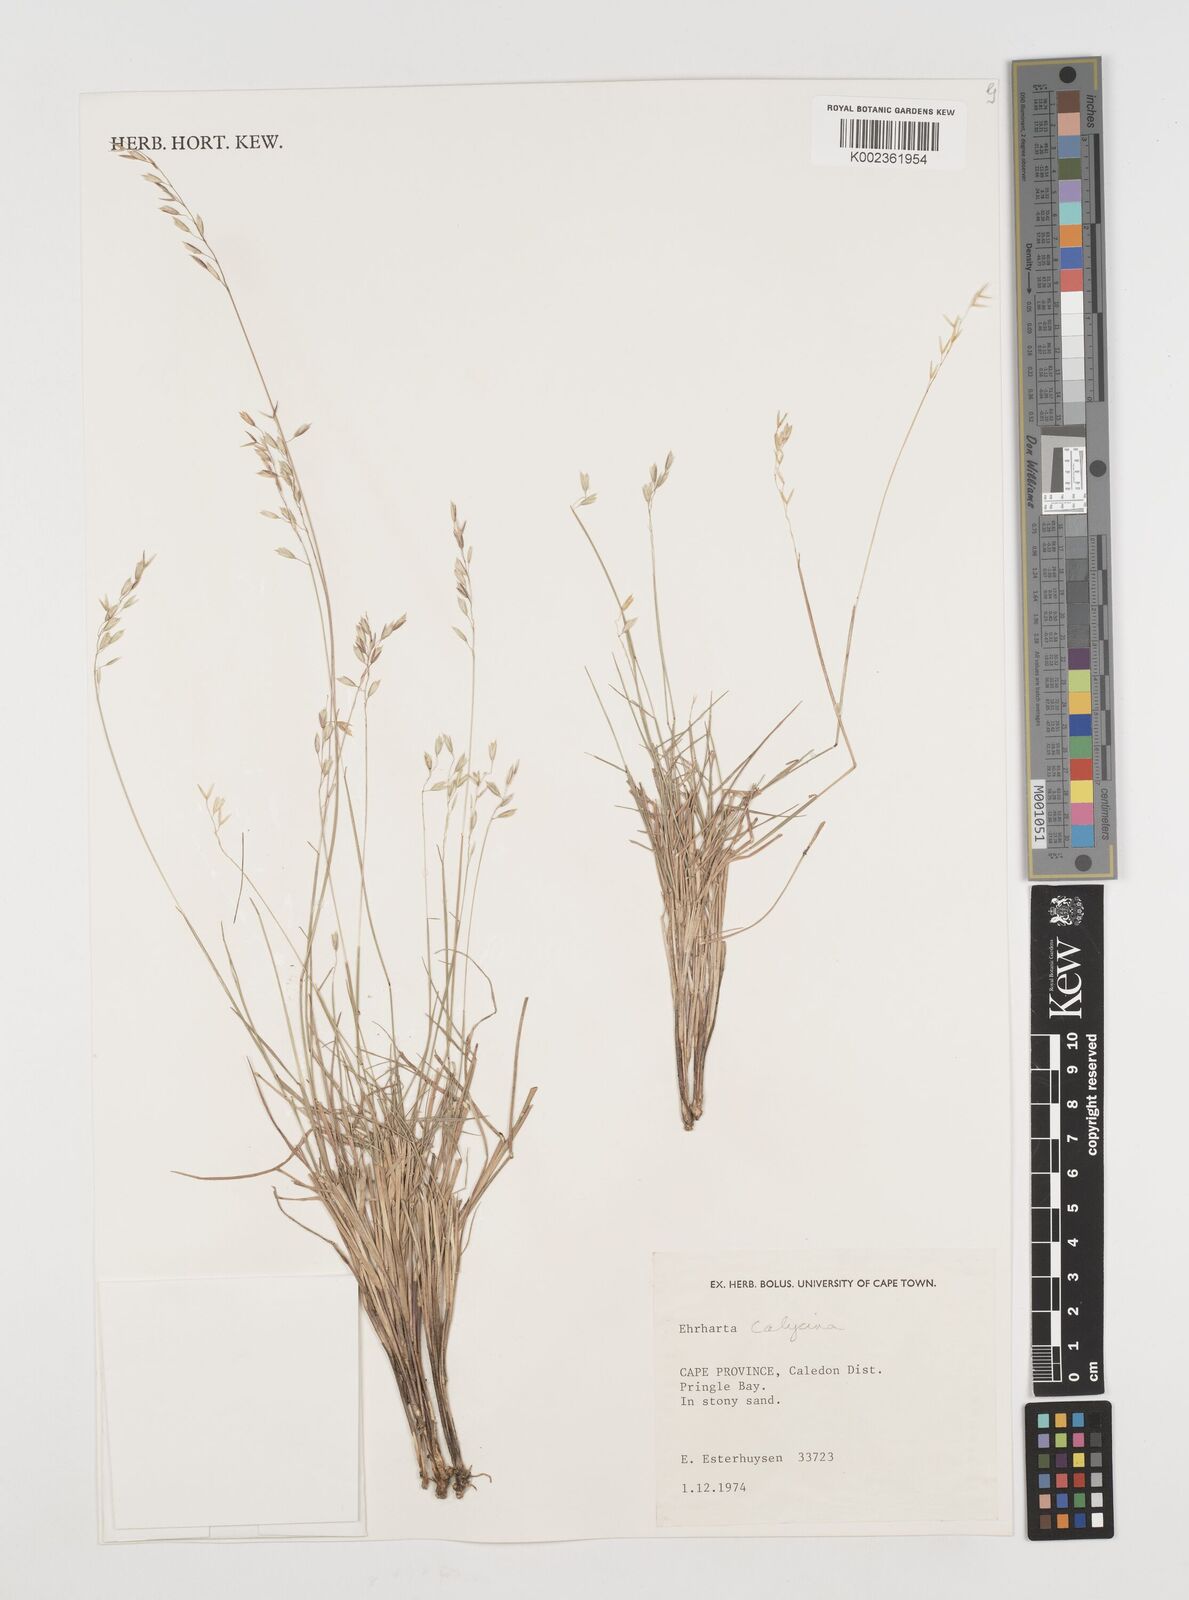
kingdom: Plantae
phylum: Tracheophyta
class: Liliopsida
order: Poales
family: Poaceae
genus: Ehrharta
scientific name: Ehrharta calycina
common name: Perennial veldtgrass
